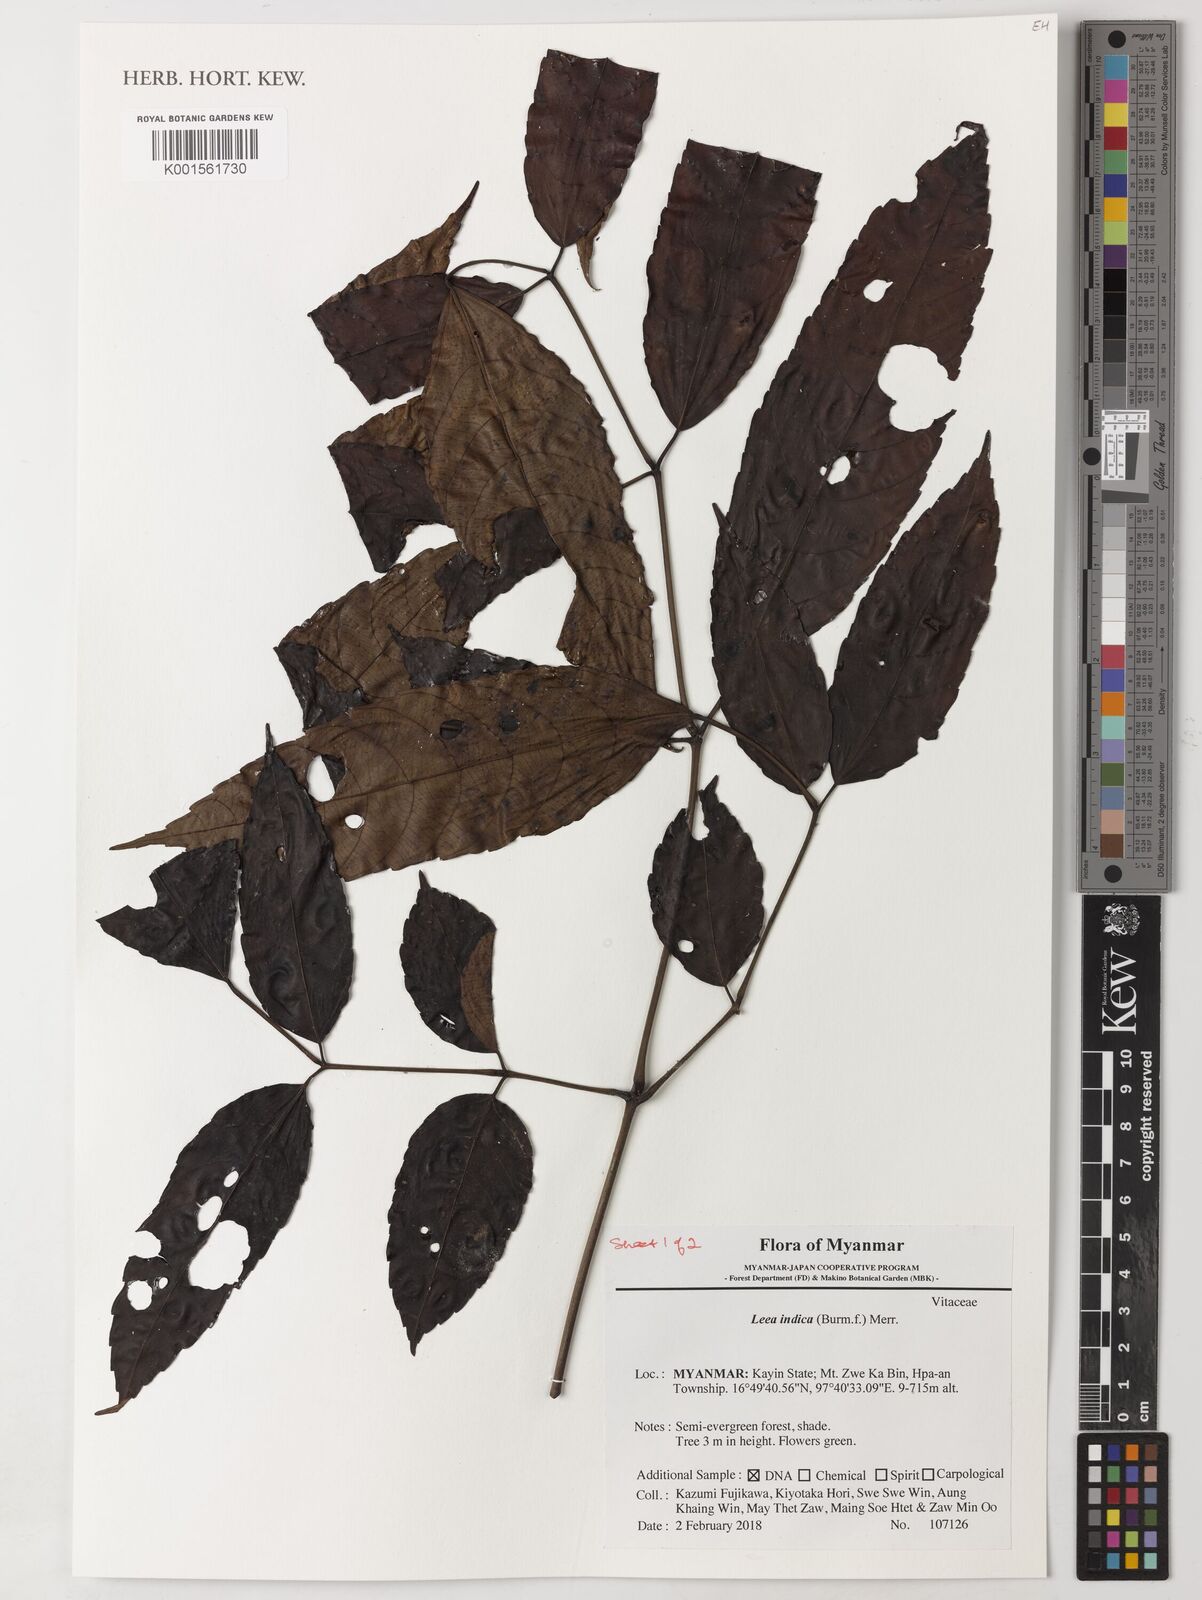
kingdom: Plantae
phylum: Tracheophyta
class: Magnoliopsida
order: Vitales
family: Vitaceae
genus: Leea
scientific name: Leea indica
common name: Bandicoot-berry
